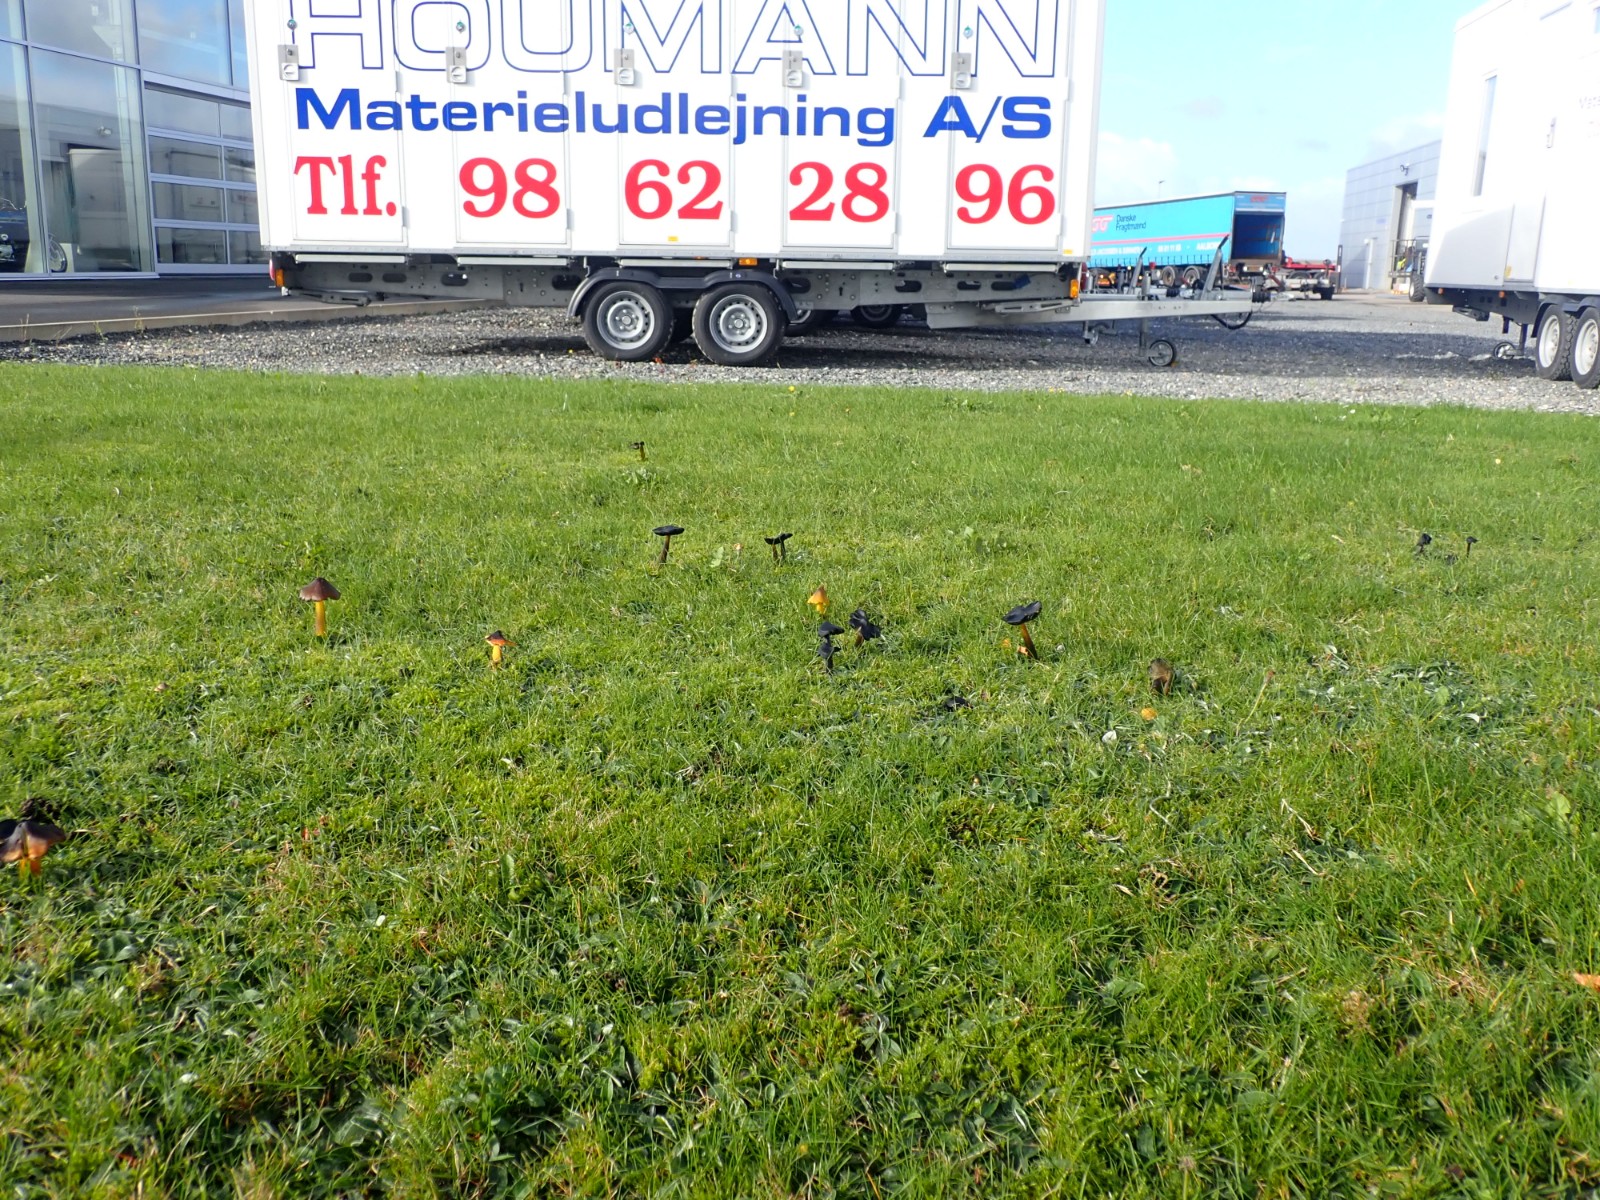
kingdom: Fungi
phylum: Basidiomycota
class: Agaricomycetes
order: Agaricales
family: Hygrophoraceae
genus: Hygrocybe
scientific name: Hygrocybe conica
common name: kegle-vokshat
